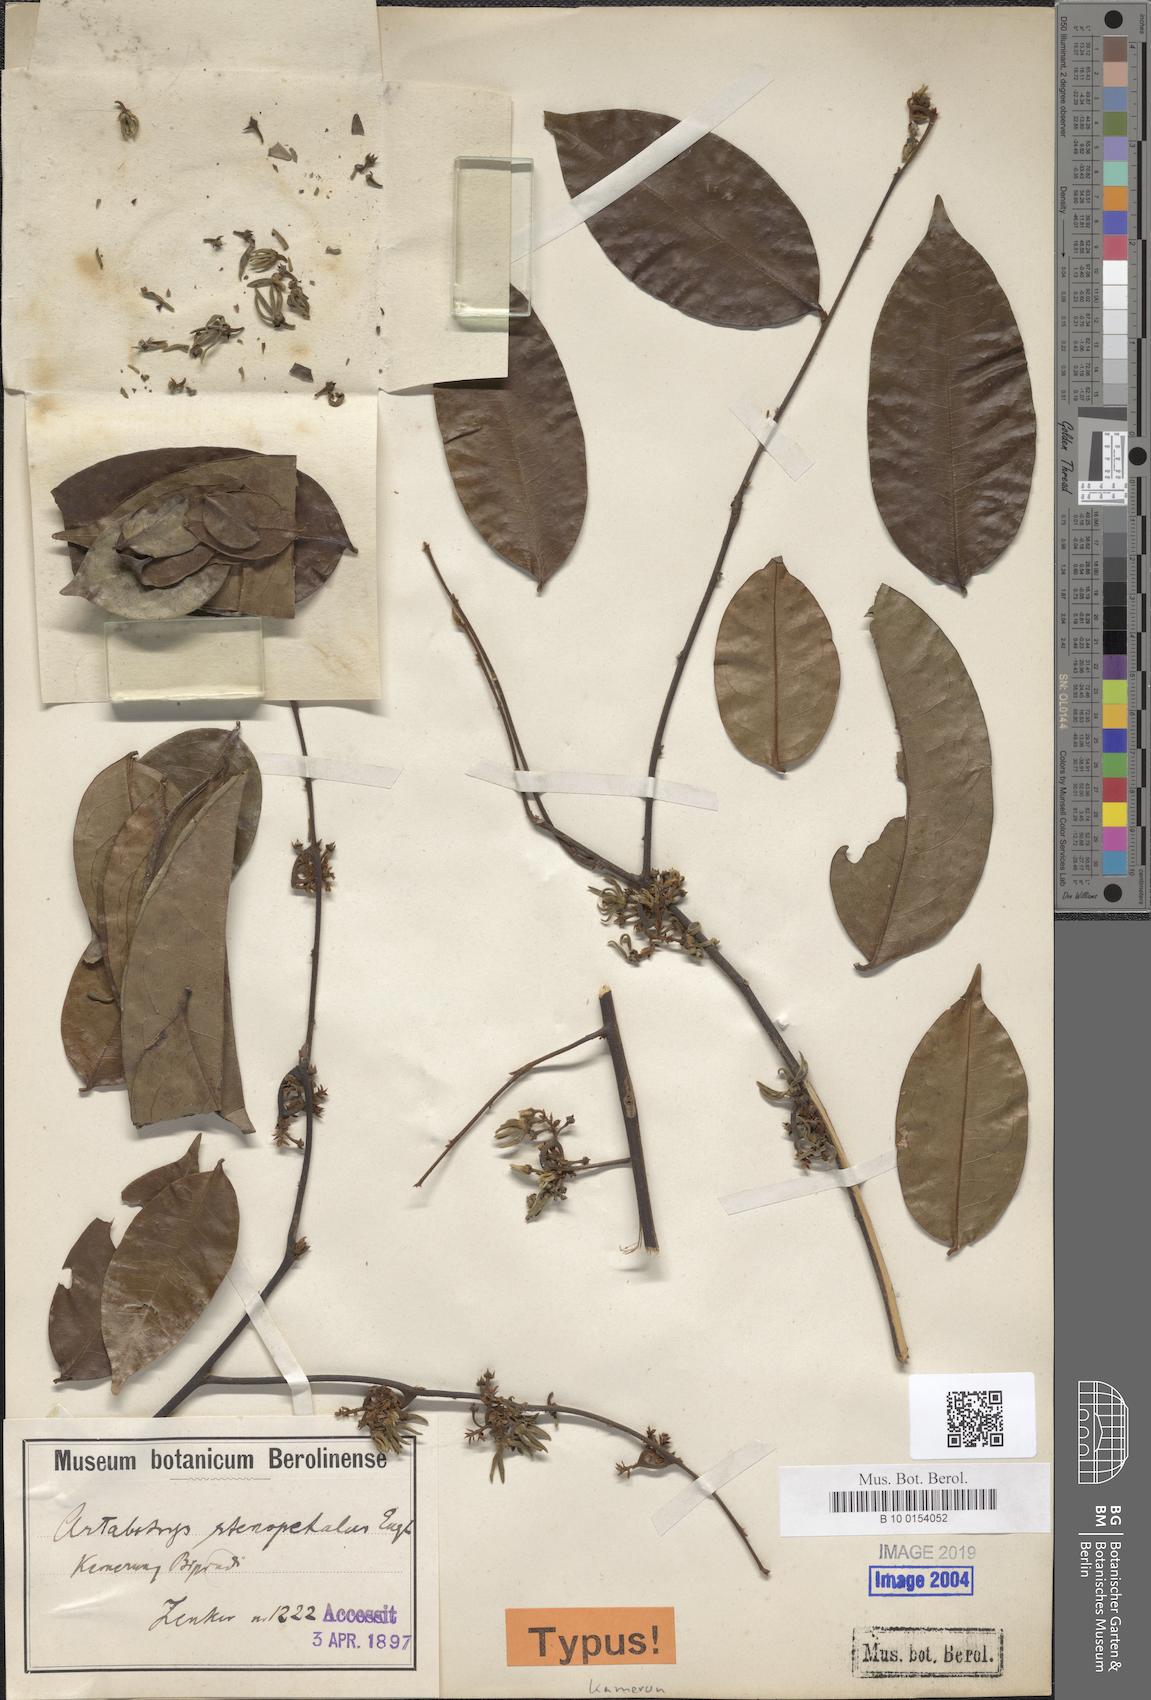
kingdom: Plantae
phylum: Tracheophyta
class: Magnoliopsida
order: Magnoliales
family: Annonaceae
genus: Artabotrys
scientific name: Artabotrys stenopetalus
